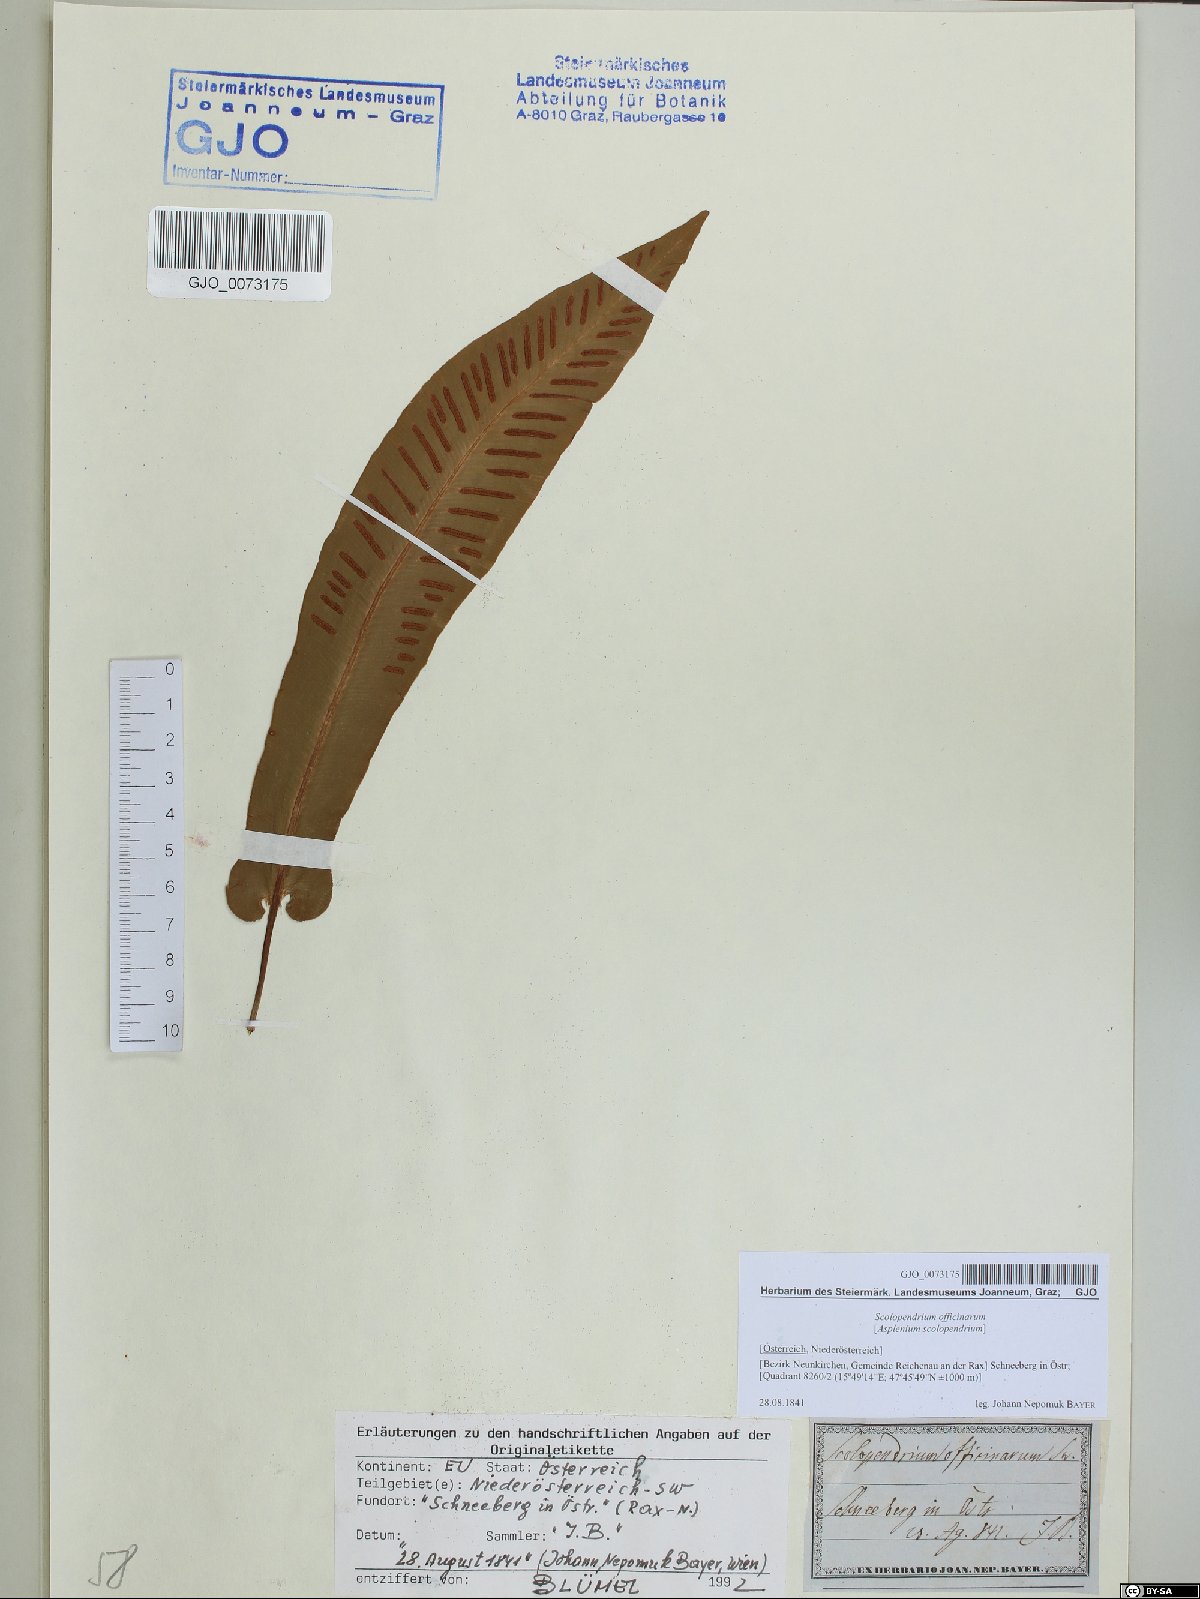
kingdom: Plantae
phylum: Tracheophyta
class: Polypodiopsida
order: Polypodiales
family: Aspleniaceae
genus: Asplenium
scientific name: Asplenium scolopendrium
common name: Hart's-tongue fern
